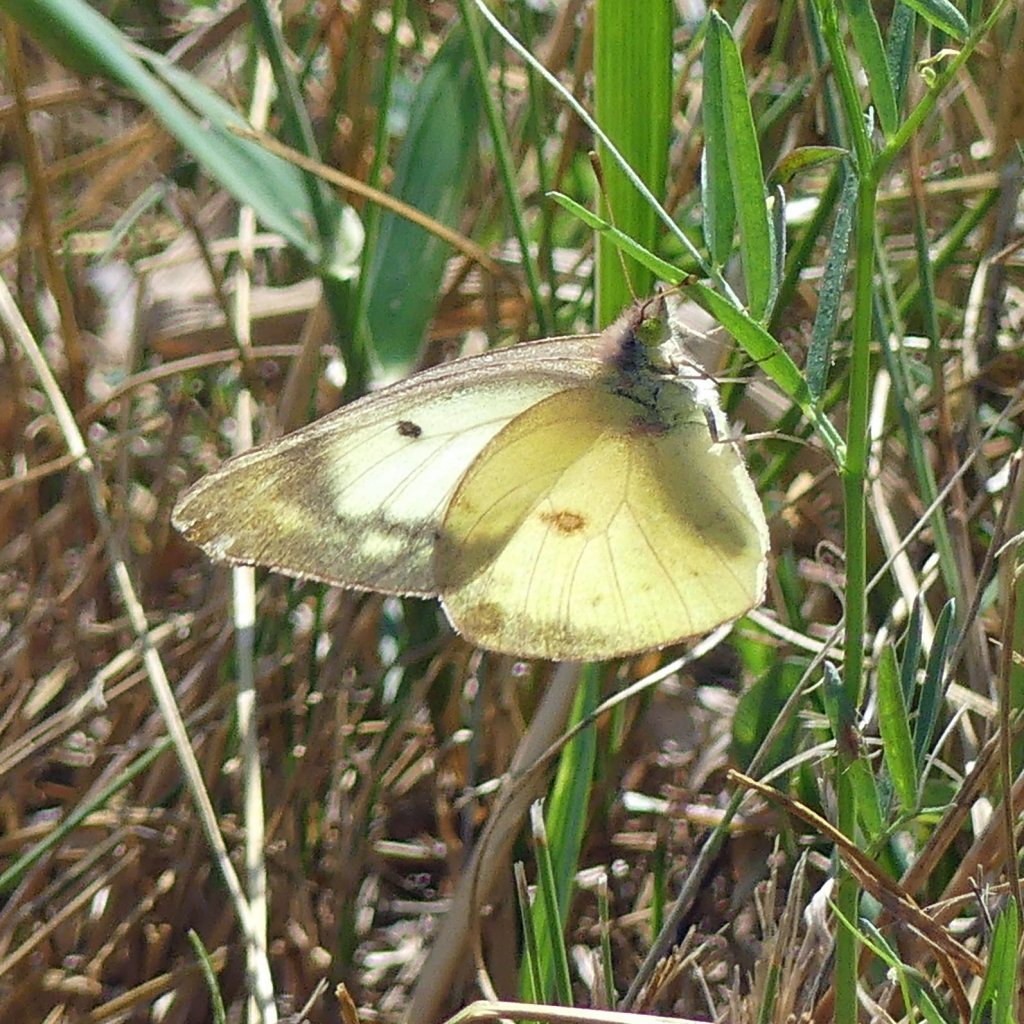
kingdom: Animalia
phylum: Arthropoda
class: Insecta
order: Lepidoptera
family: Pieridae
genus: Colias
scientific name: Colias philodice
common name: Clouded Sulphur
